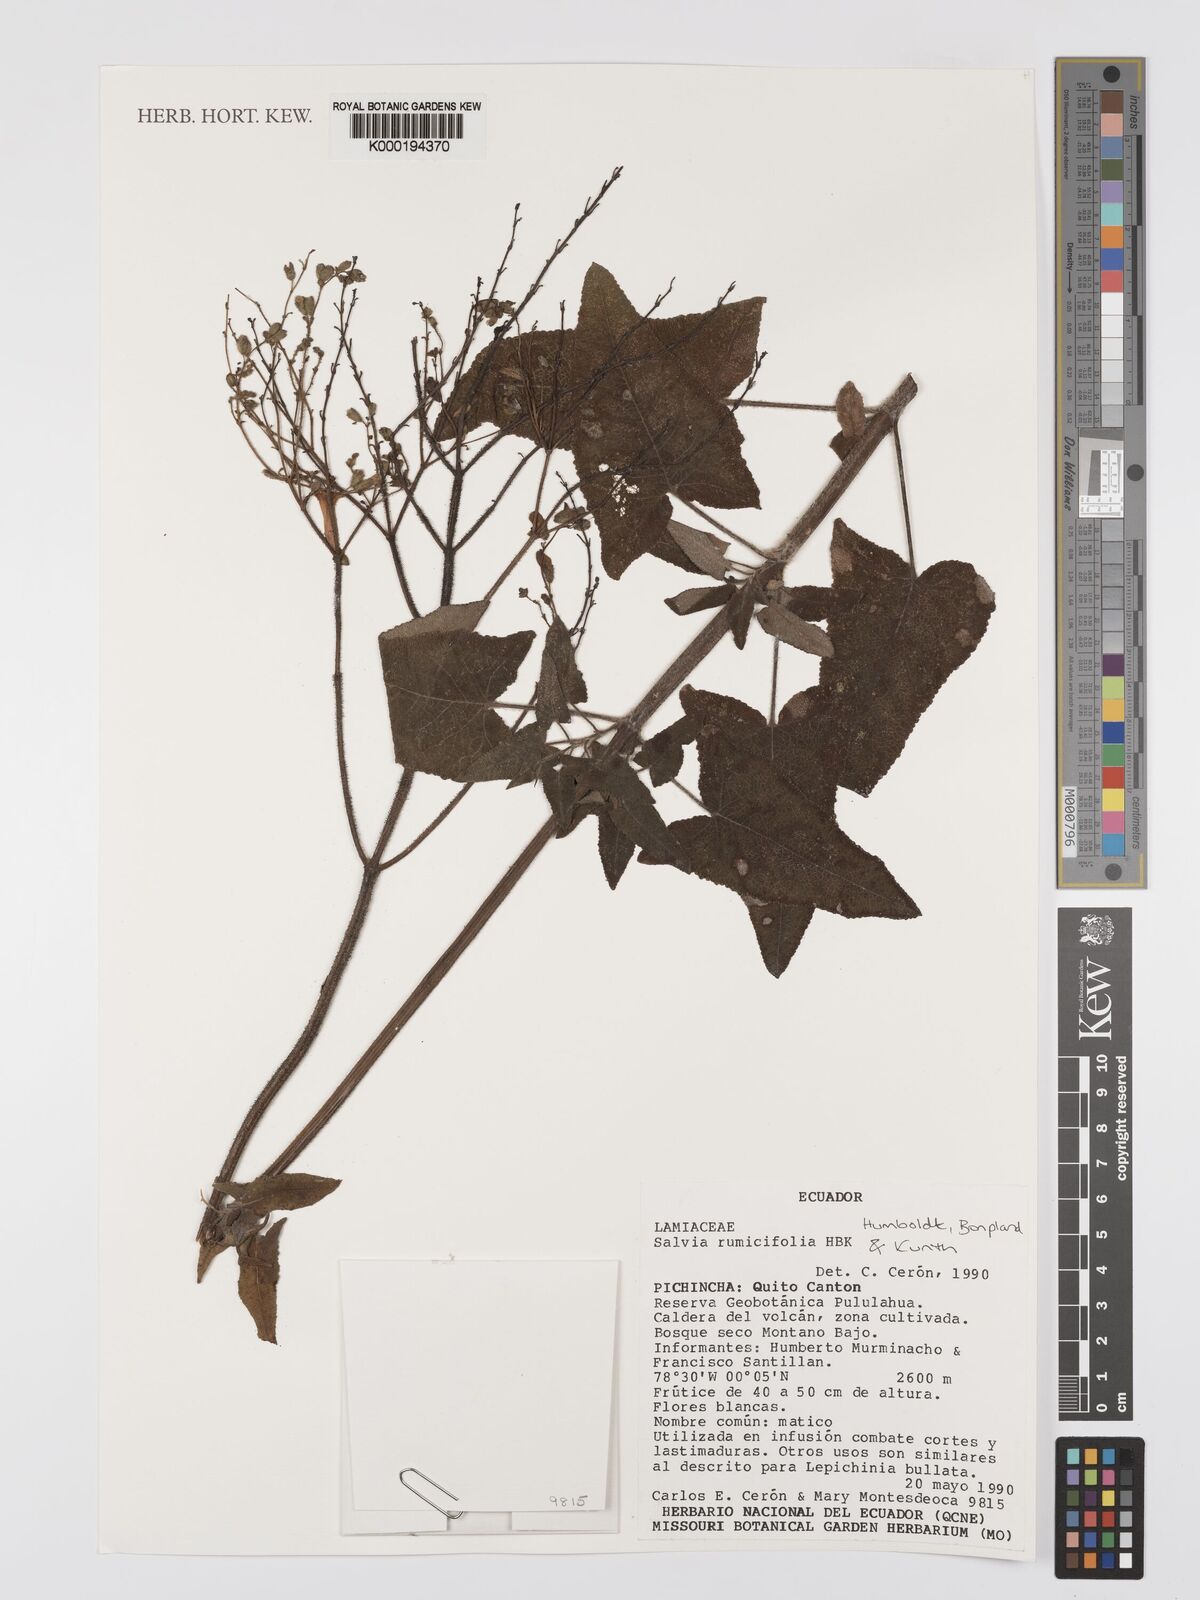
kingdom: Plantae
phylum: Tracheophyta
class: Magnoliopsida
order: Lamiales
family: Lamiaceae
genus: Salvia
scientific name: Salvia
